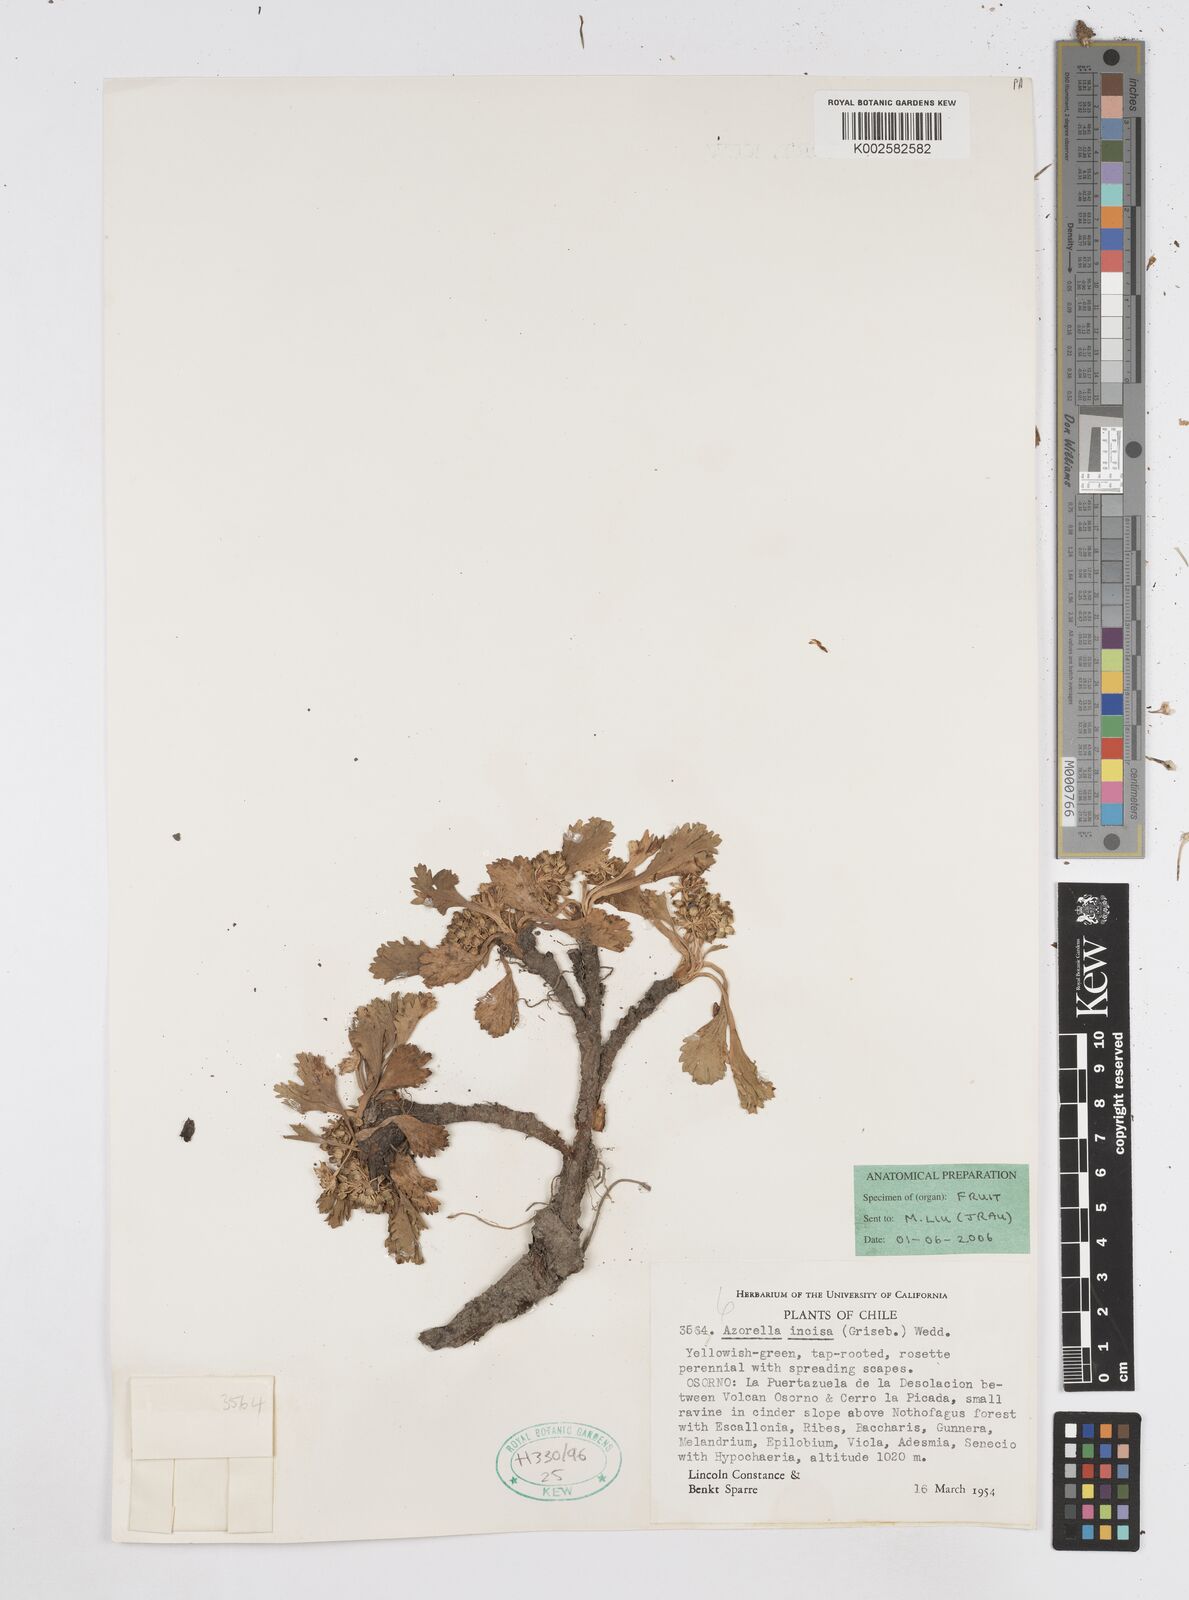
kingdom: Plantae
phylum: Tracheophyta
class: Magnoliopsida
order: Apiales
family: Apiaceae
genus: Azorella
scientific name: Azorella diversifolia
